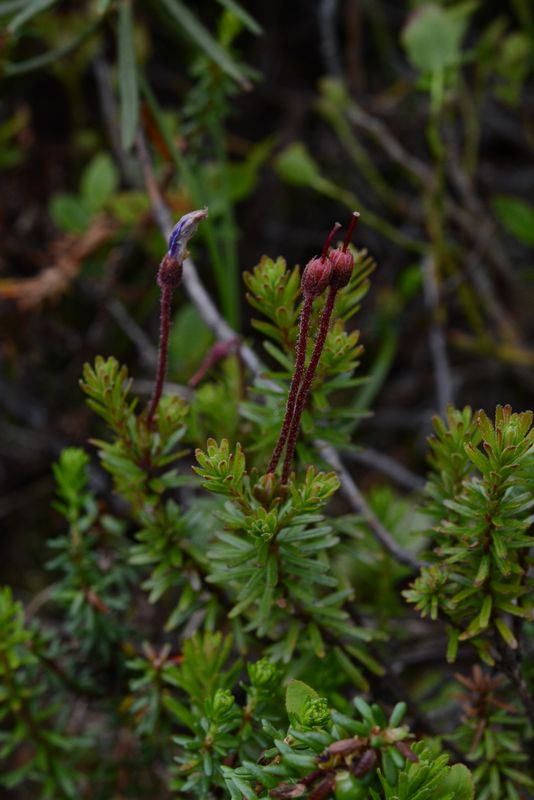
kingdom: Plantae
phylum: Tracheophyta
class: Magnoliopsida
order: Ericales
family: Ericaceae
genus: Phyllodoce
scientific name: Phyllodoce caerulea
